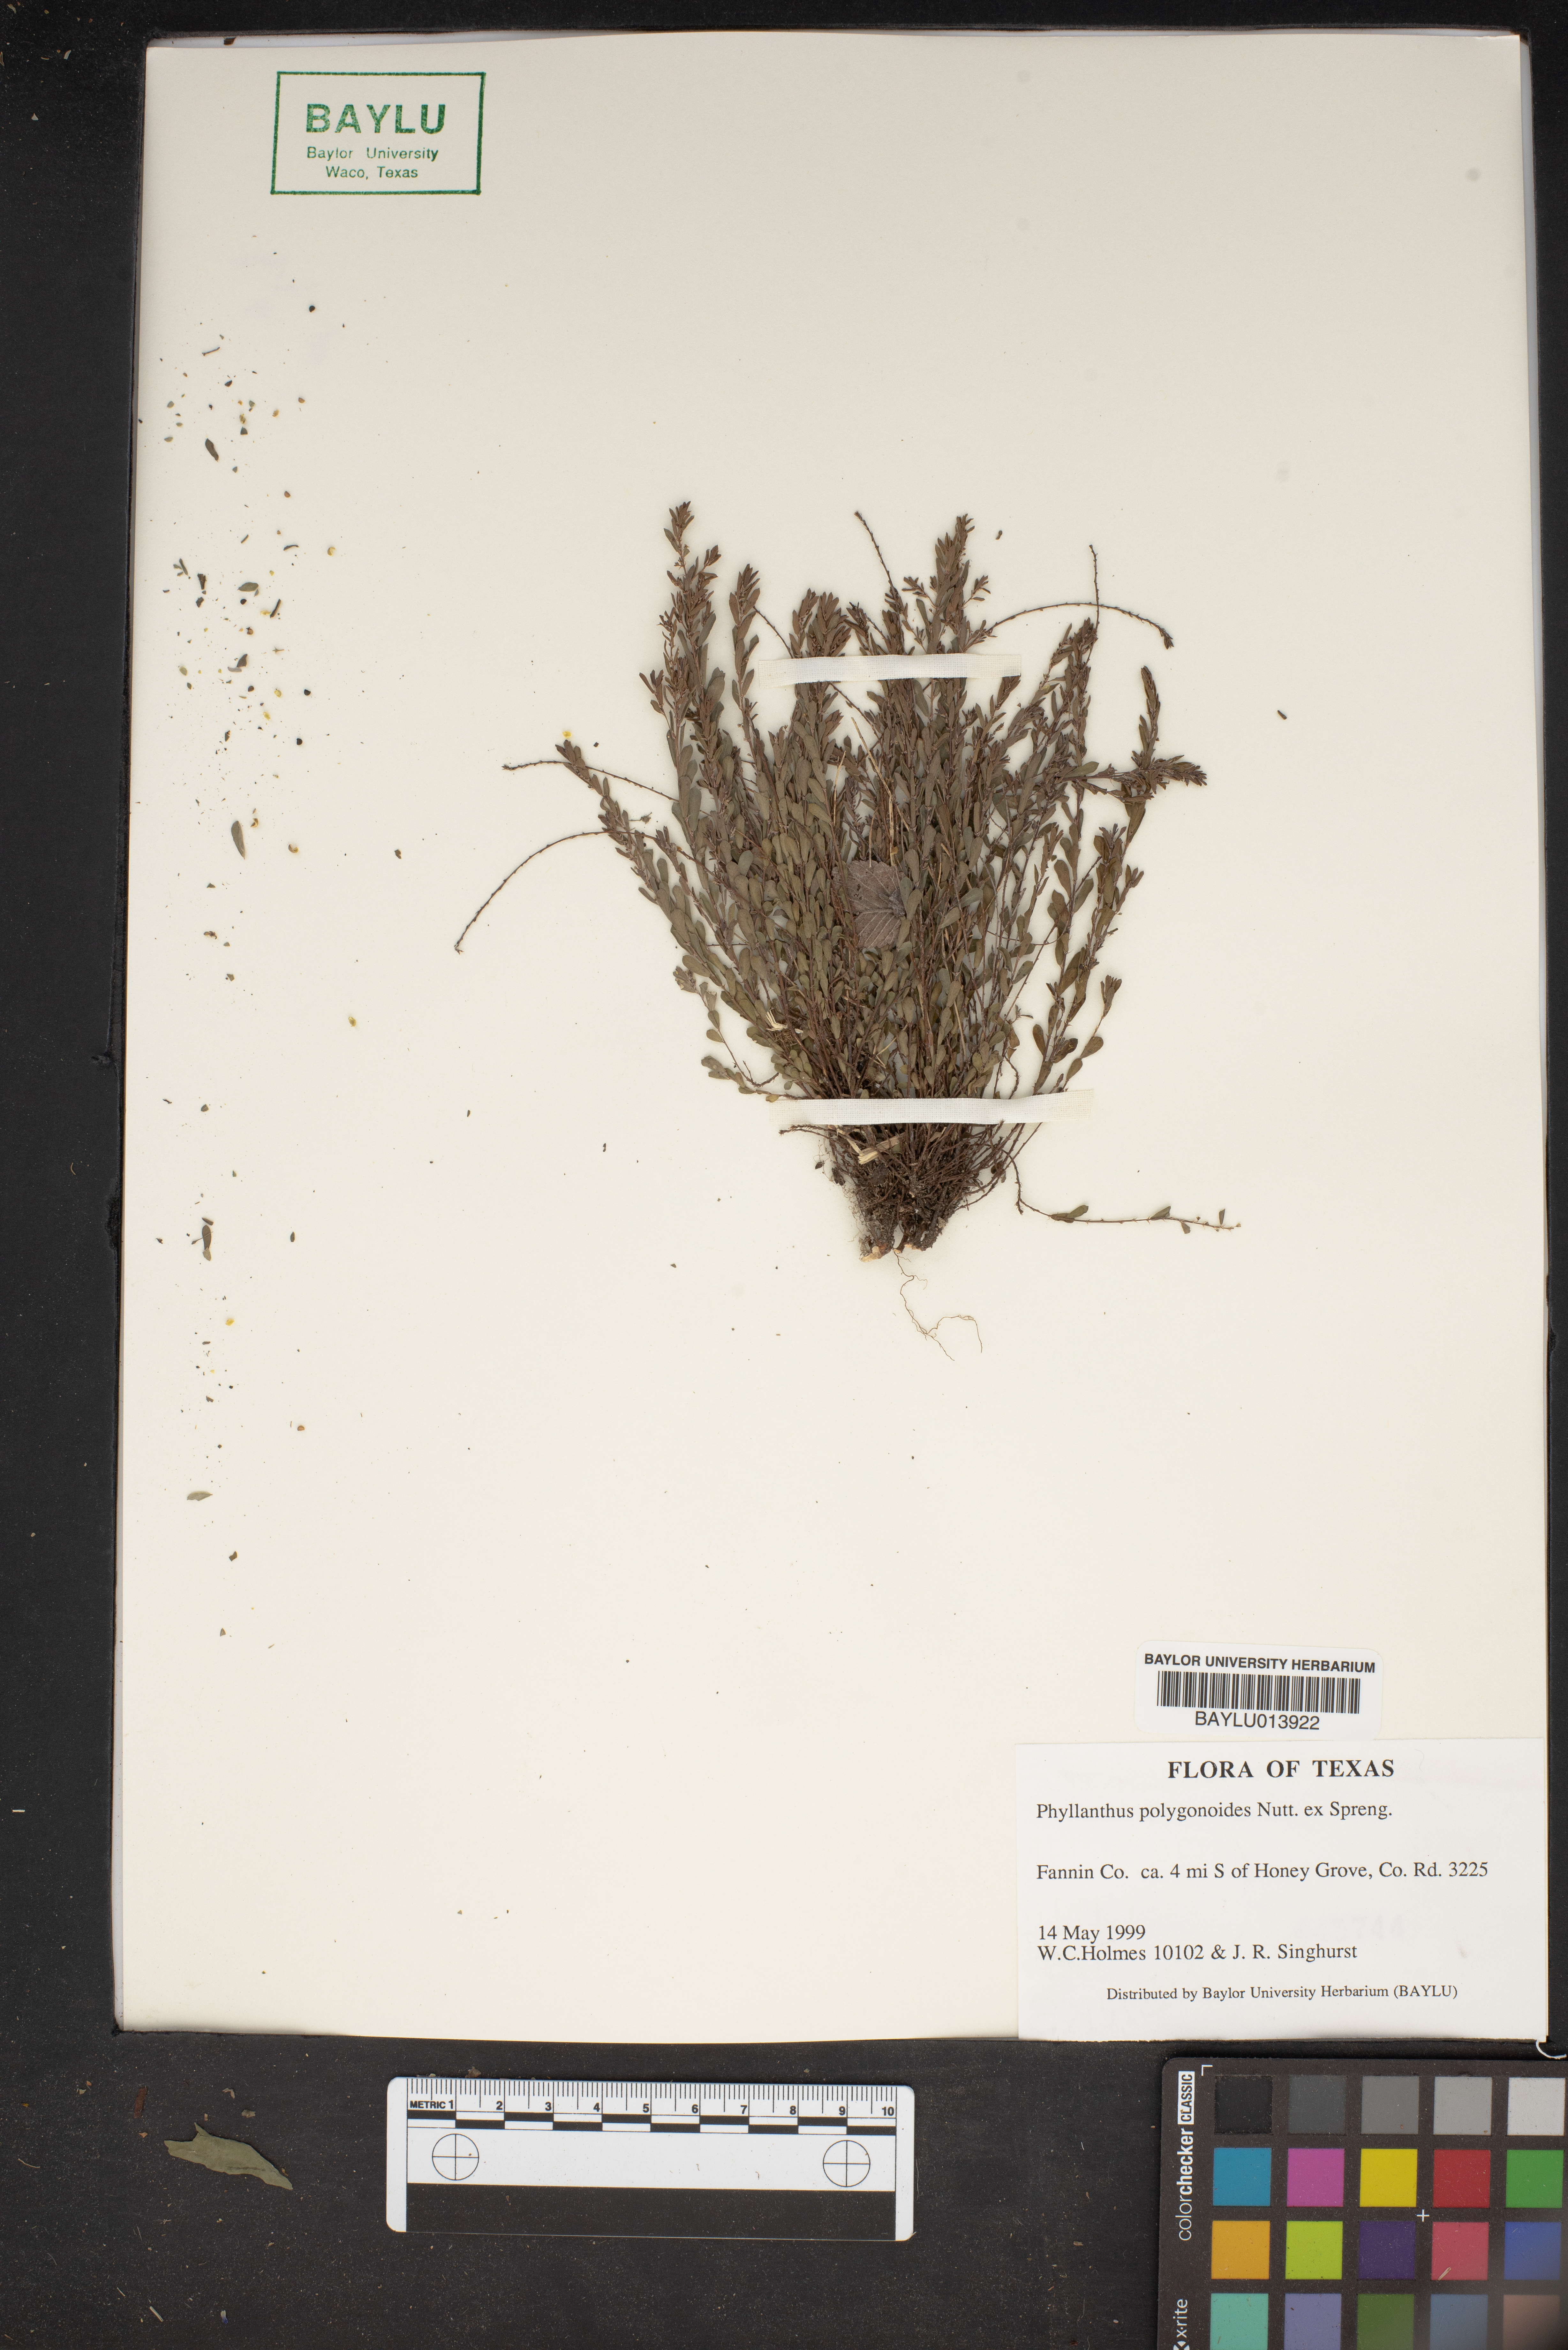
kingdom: Plantae
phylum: Tracheophyta
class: Magnoliopsida
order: Malpighiales
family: Phyllanthaceae
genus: Phyllanthus
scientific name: Phyllanthus polygonoides
